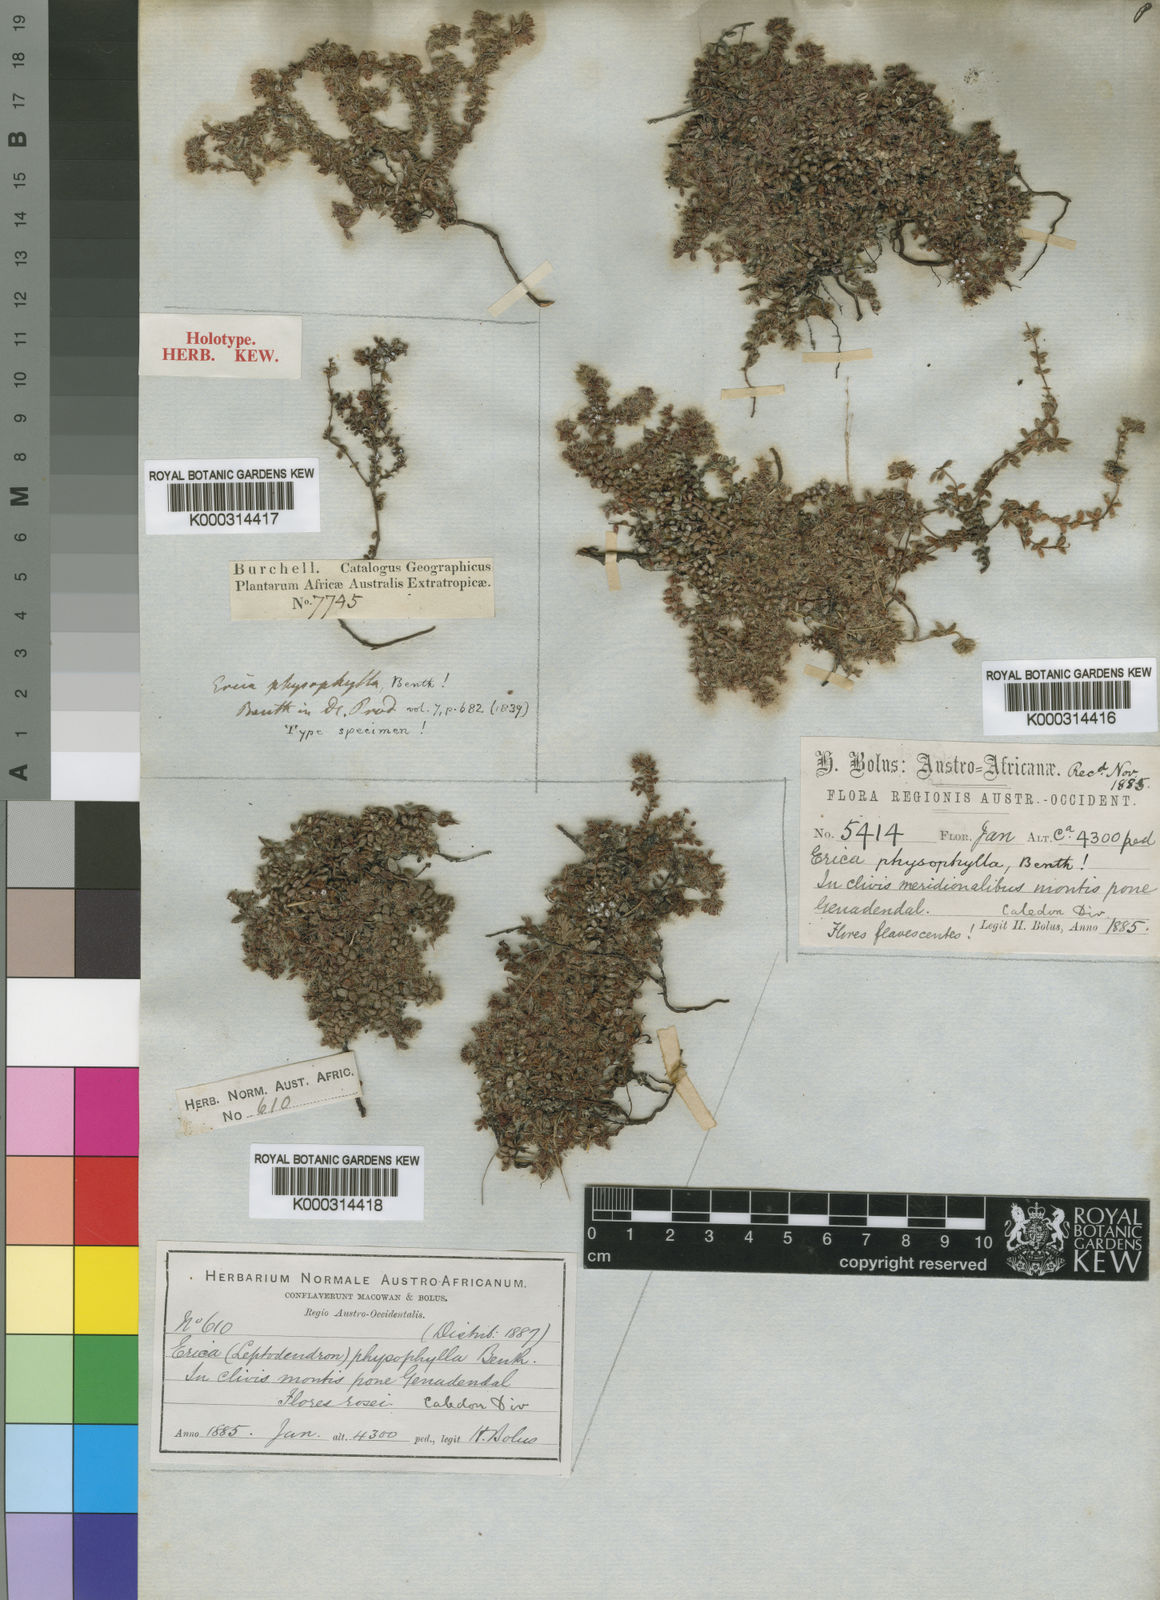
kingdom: Plantae
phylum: Tracheophyta
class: Magnoliopsida
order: Ericales
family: Ericaceae
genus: Erica
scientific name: Erica physophylla
